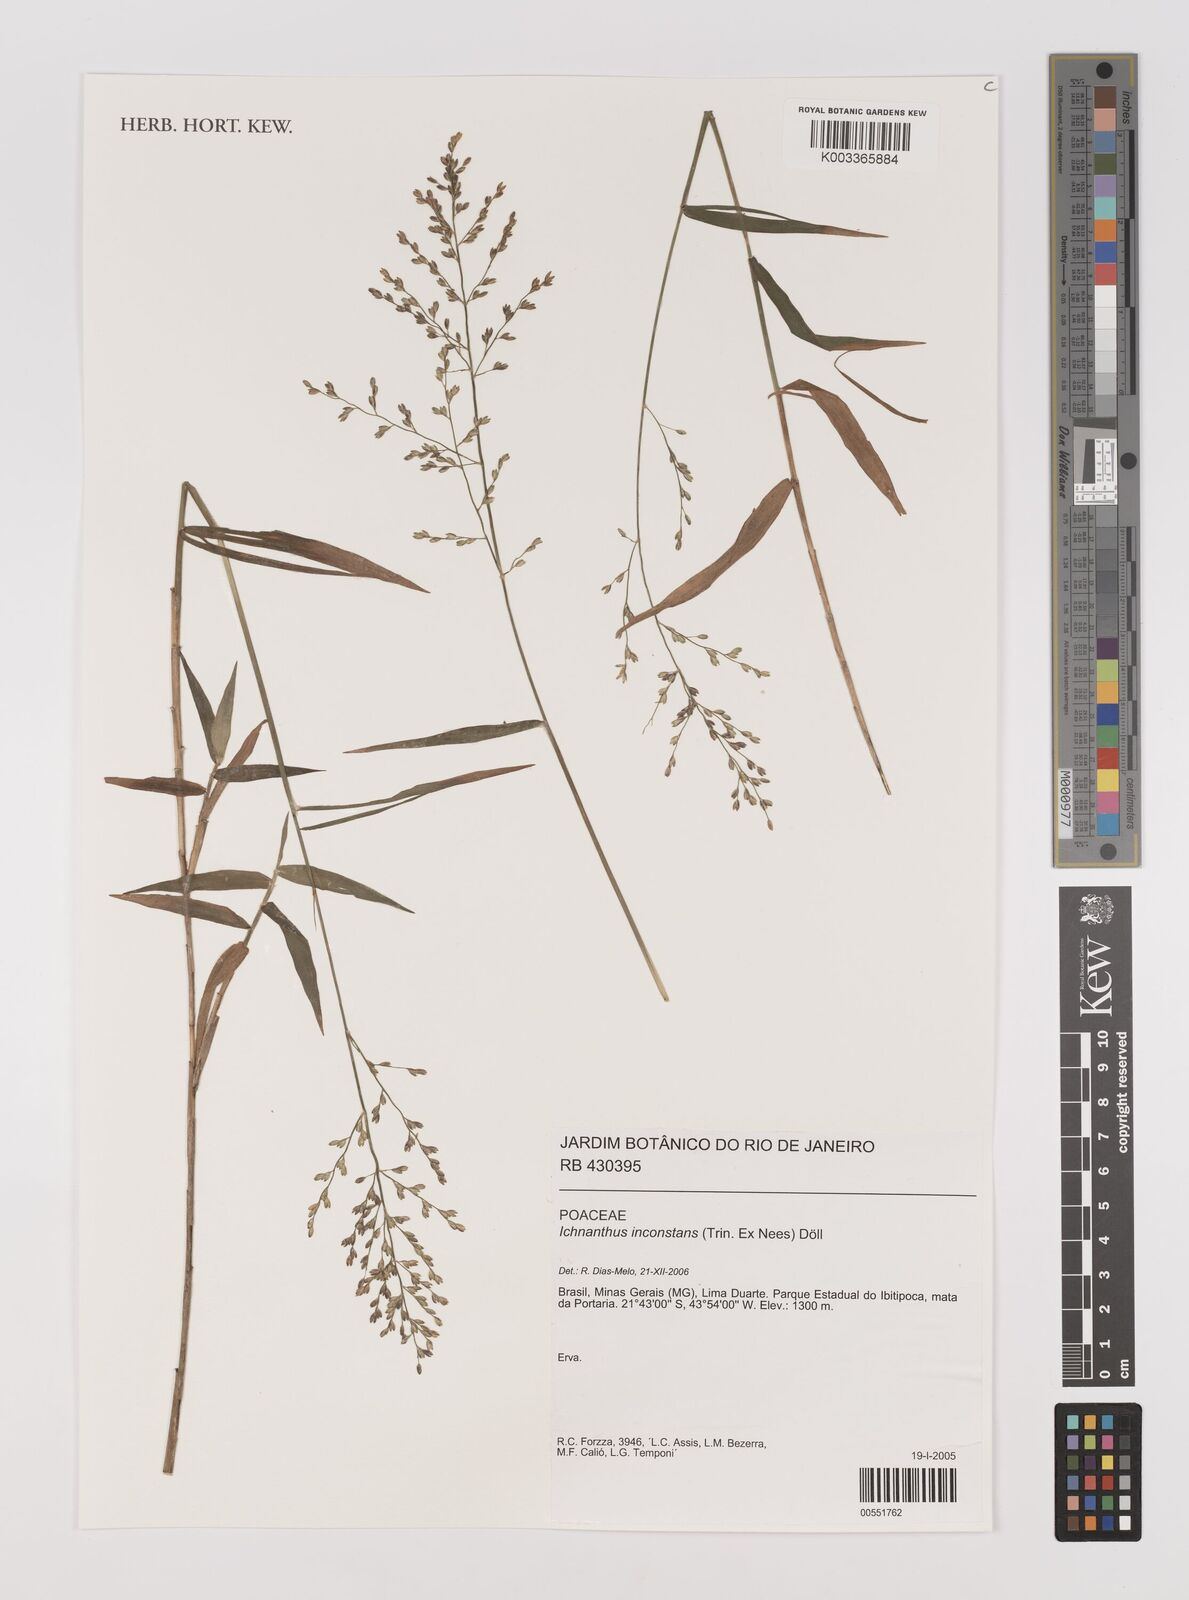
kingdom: Plantae
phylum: Tracheophyta
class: Liliopsida
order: Poales
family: Poaceae
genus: Ichnanthus
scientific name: Ichnanthus inconstans
